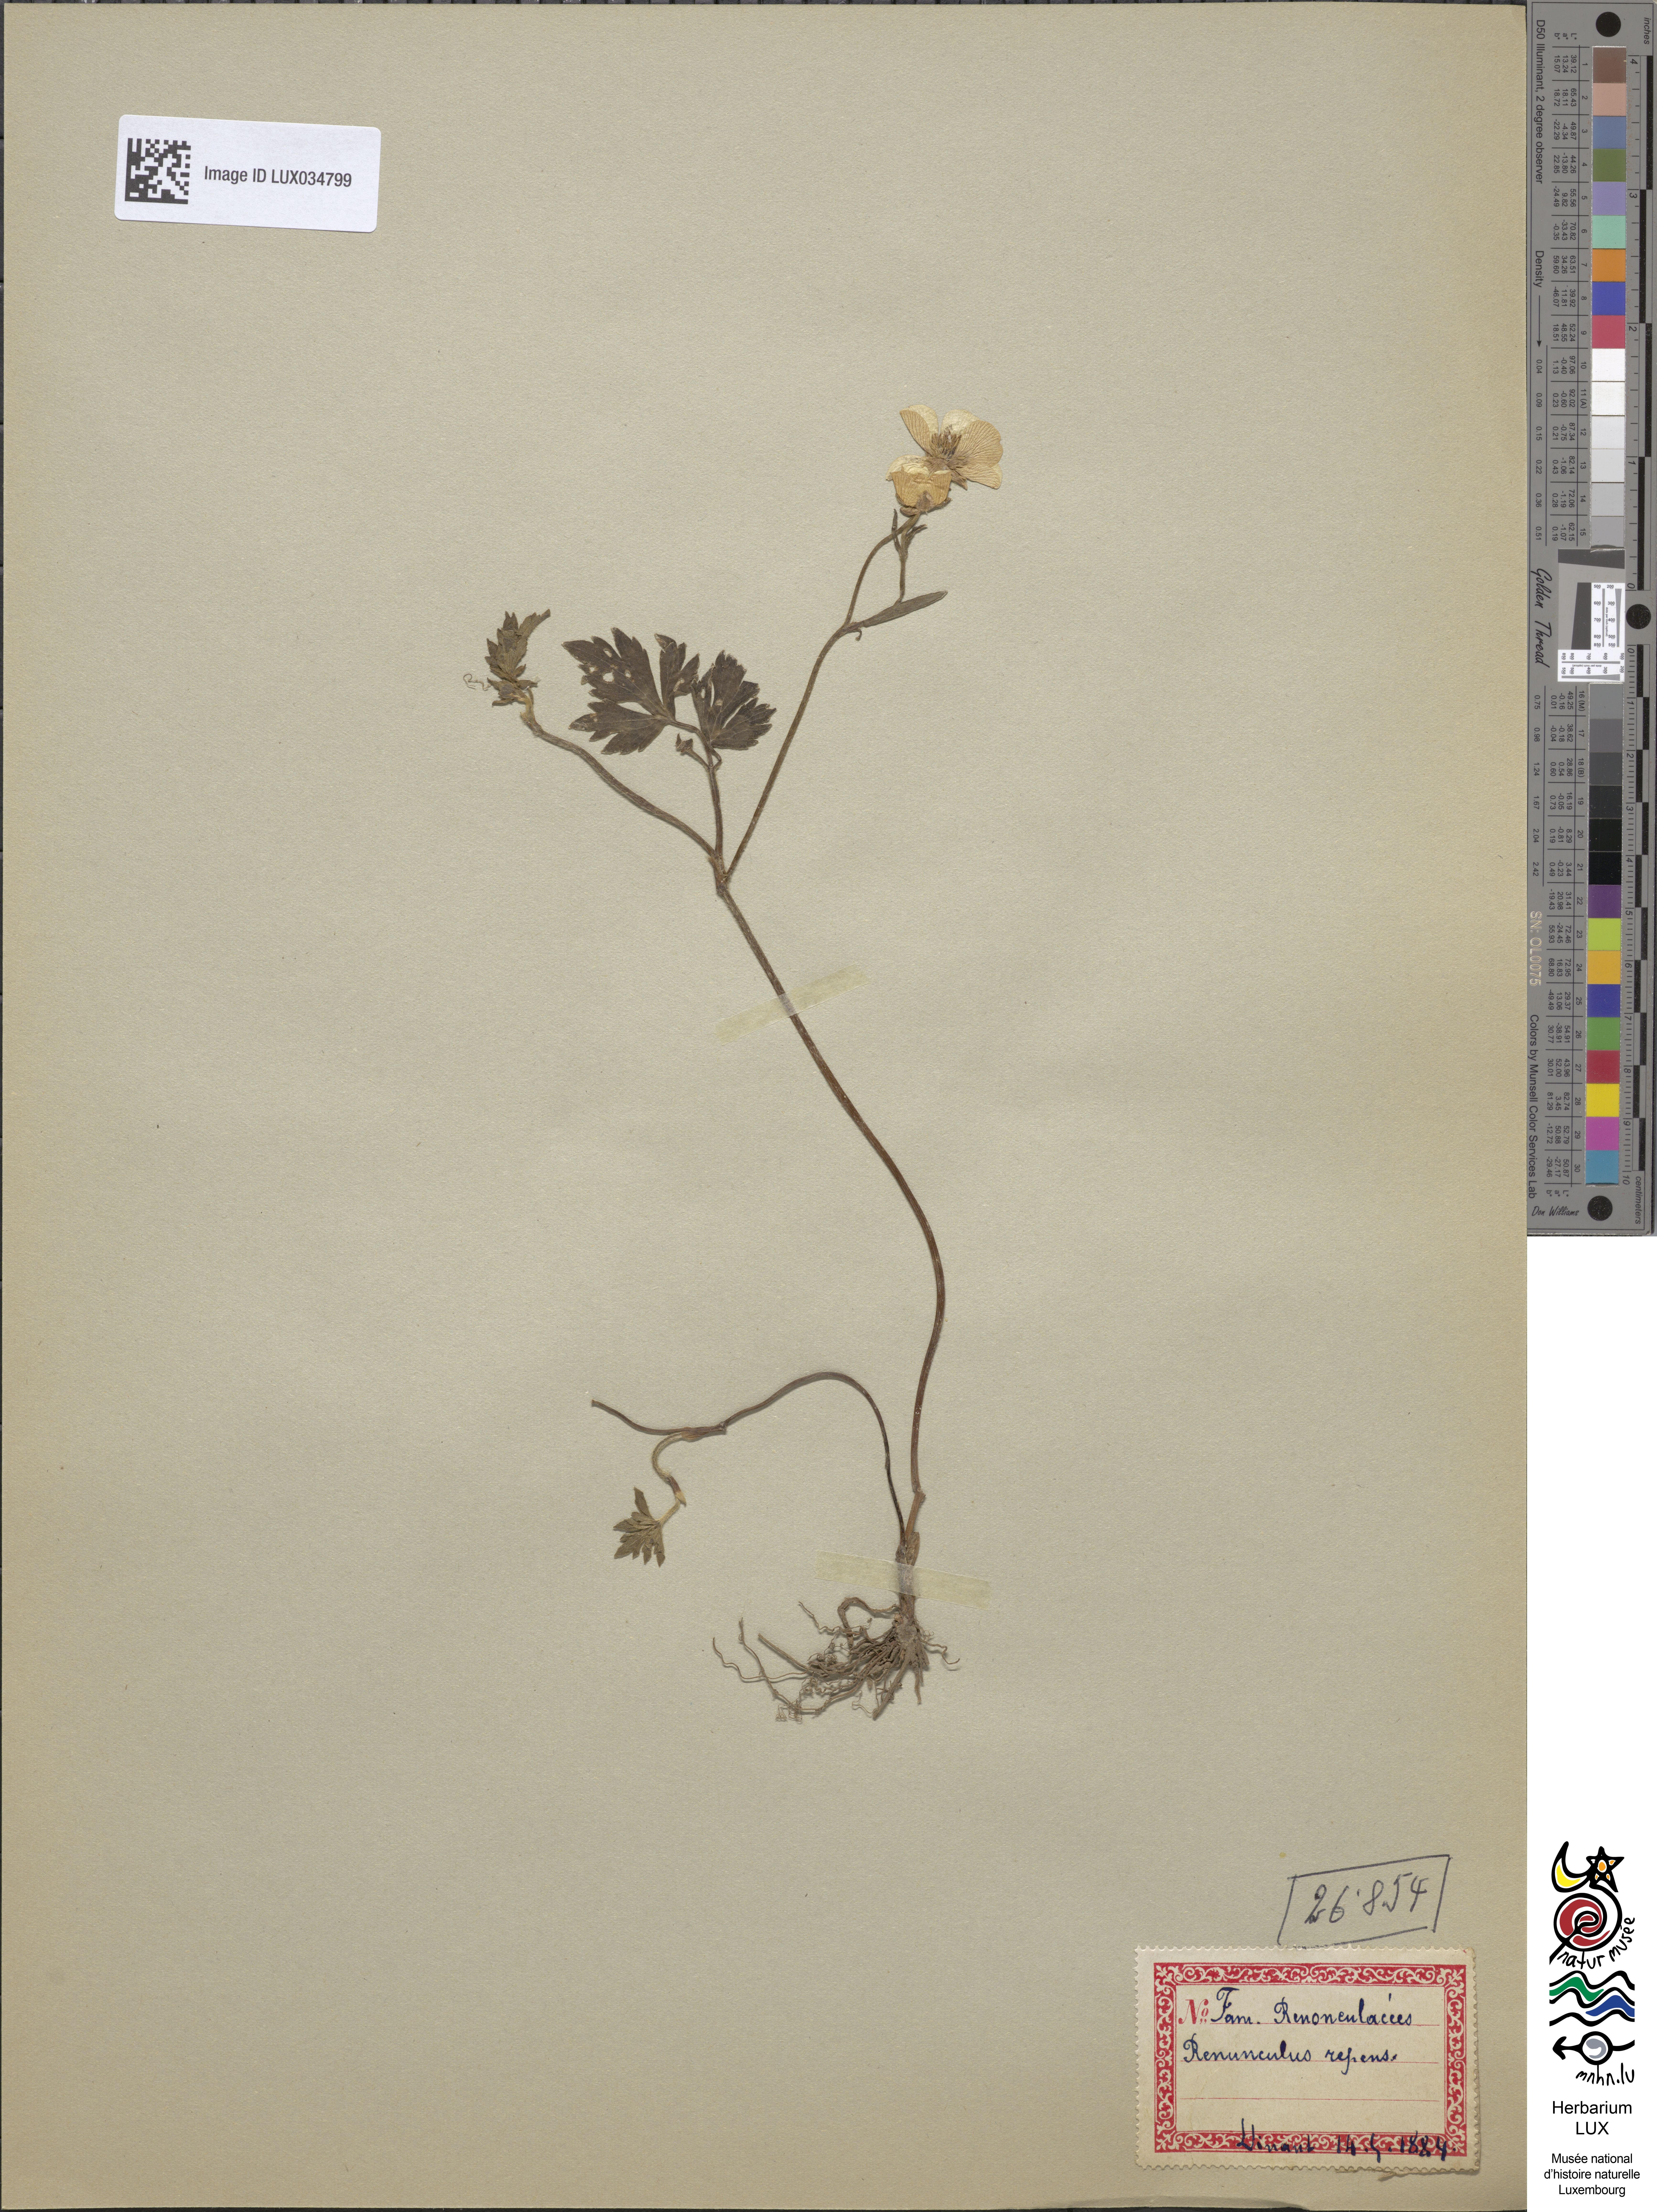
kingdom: Plantae
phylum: Tracheophyta
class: Magnoliopsida
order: Ranunculales
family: Ranunculaceae
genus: Ranunculus
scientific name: Ranunculus repens
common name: Creeping buttercup
